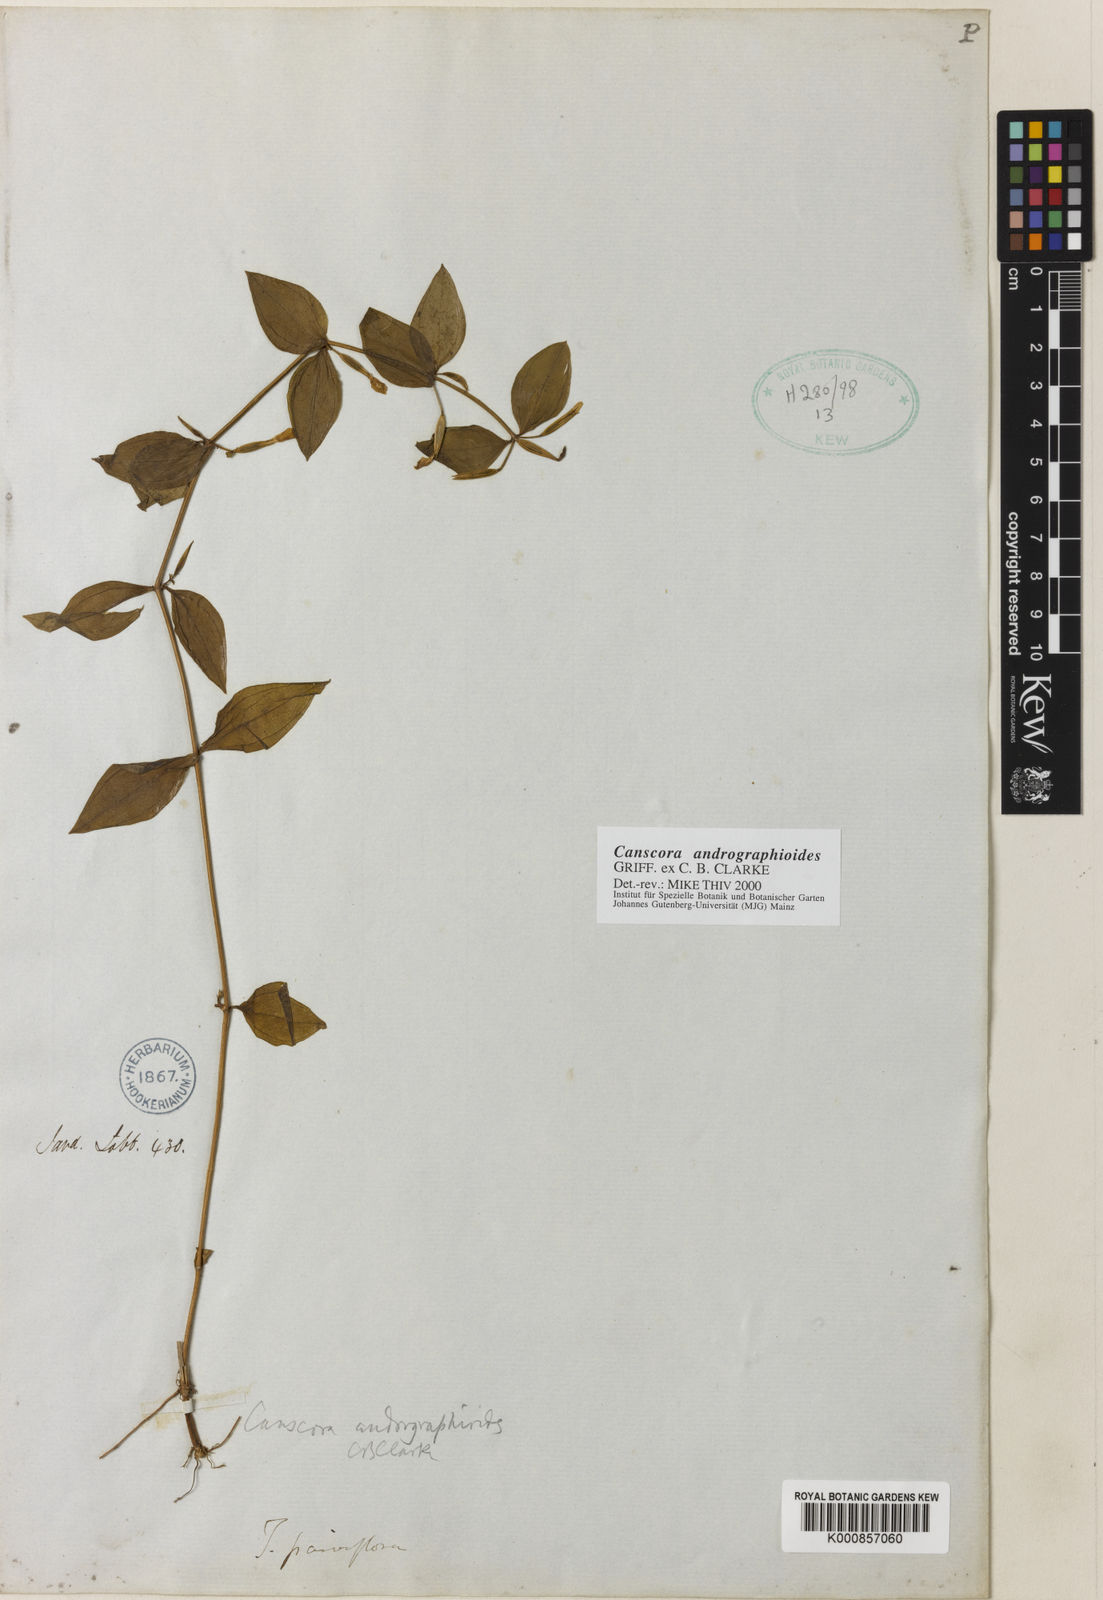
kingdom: Plantae
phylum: Tracheophyta
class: Magnoliopsida
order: Gentianales
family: Gentianaceae
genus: Canscora
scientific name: Canscora andrographioides
